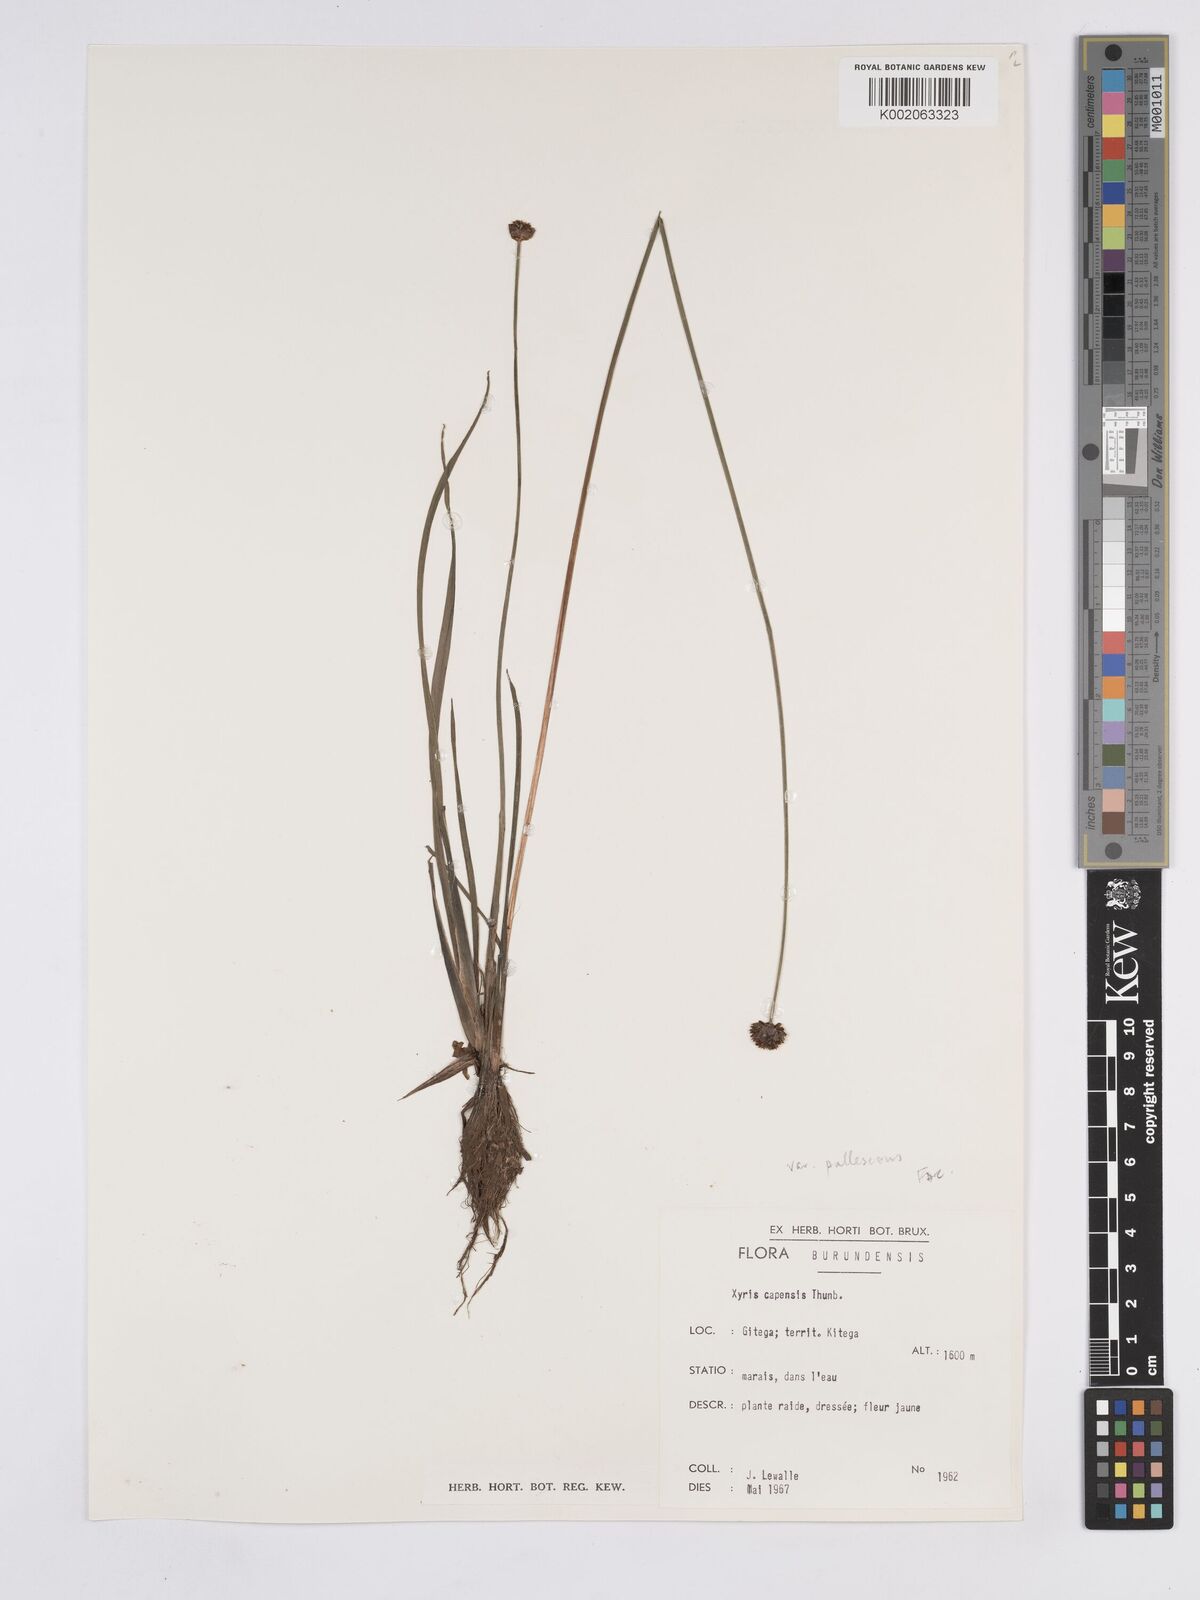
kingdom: Plantae
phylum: Tracheophyta
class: Liliopsida
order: Poales
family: Xyridaceae
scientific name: Xyridaceae
